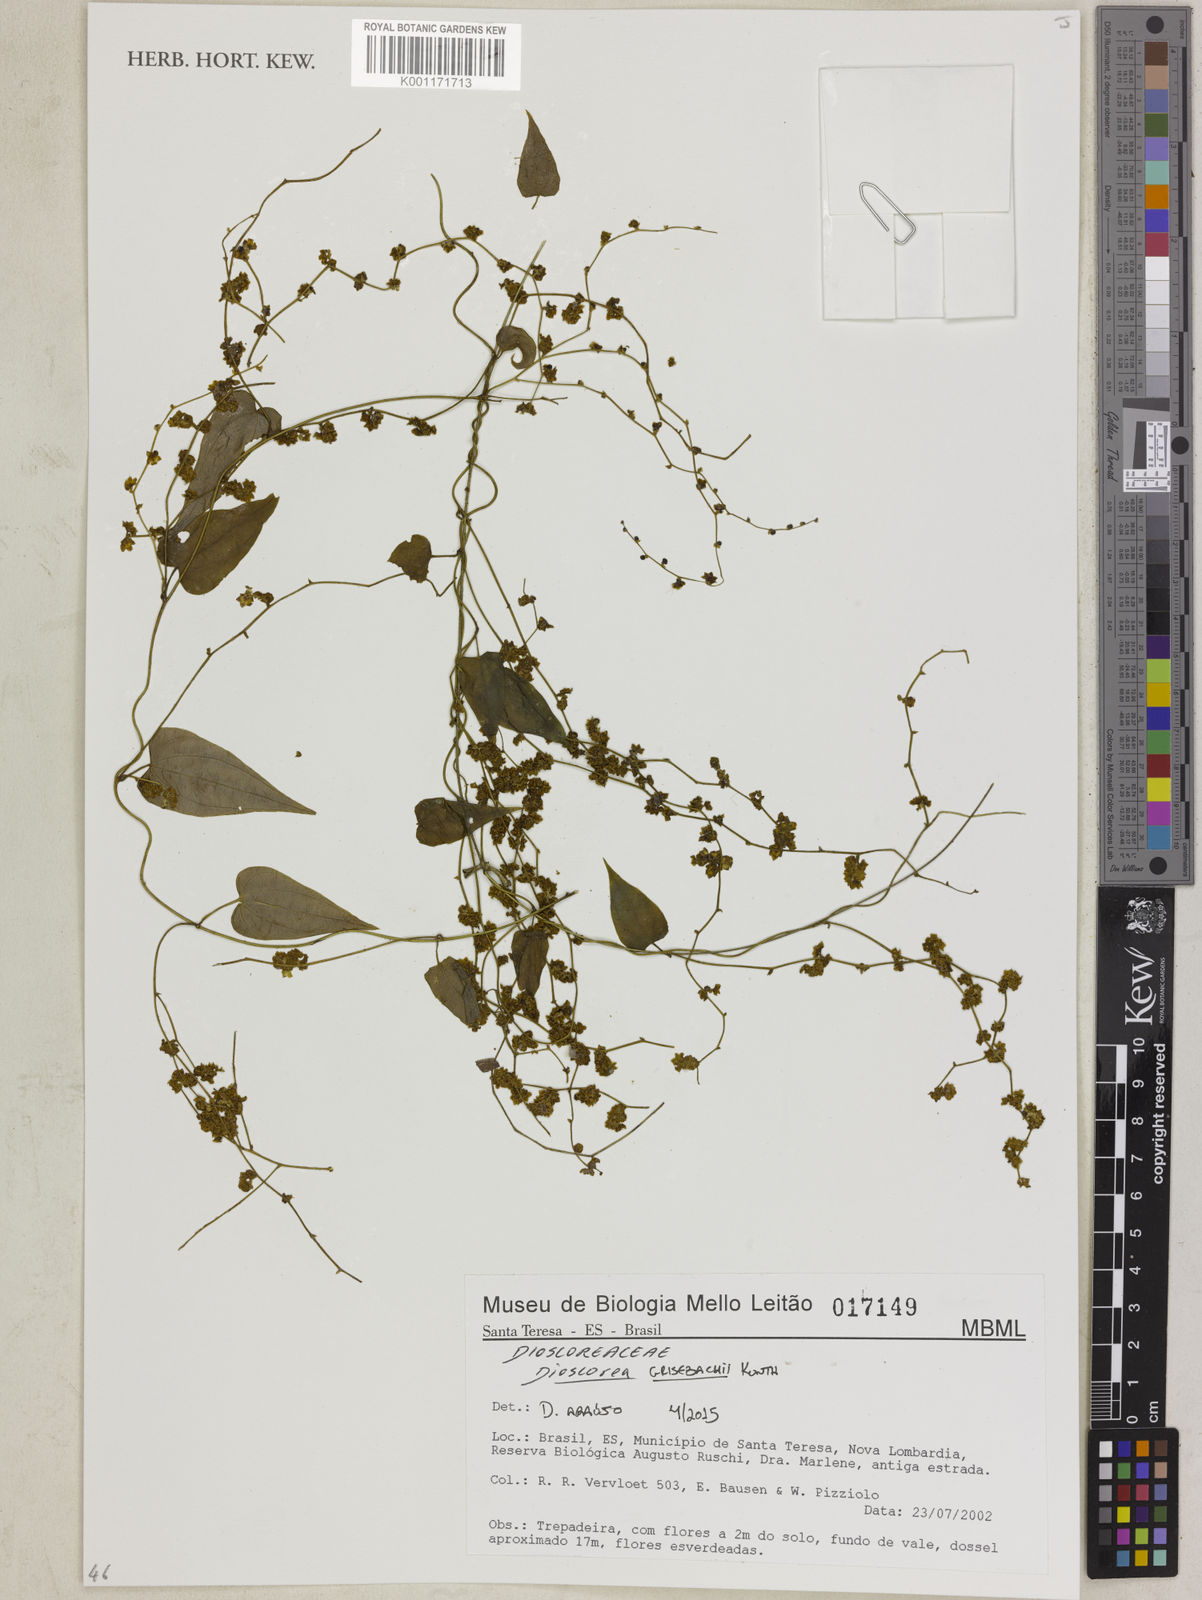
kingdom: Plantae
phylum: Tracheophyta
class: Liliopsida
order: Dioscoreales
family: Dioscoreaceae
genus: Dioscorea
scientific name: Dioscorea grisebachii
